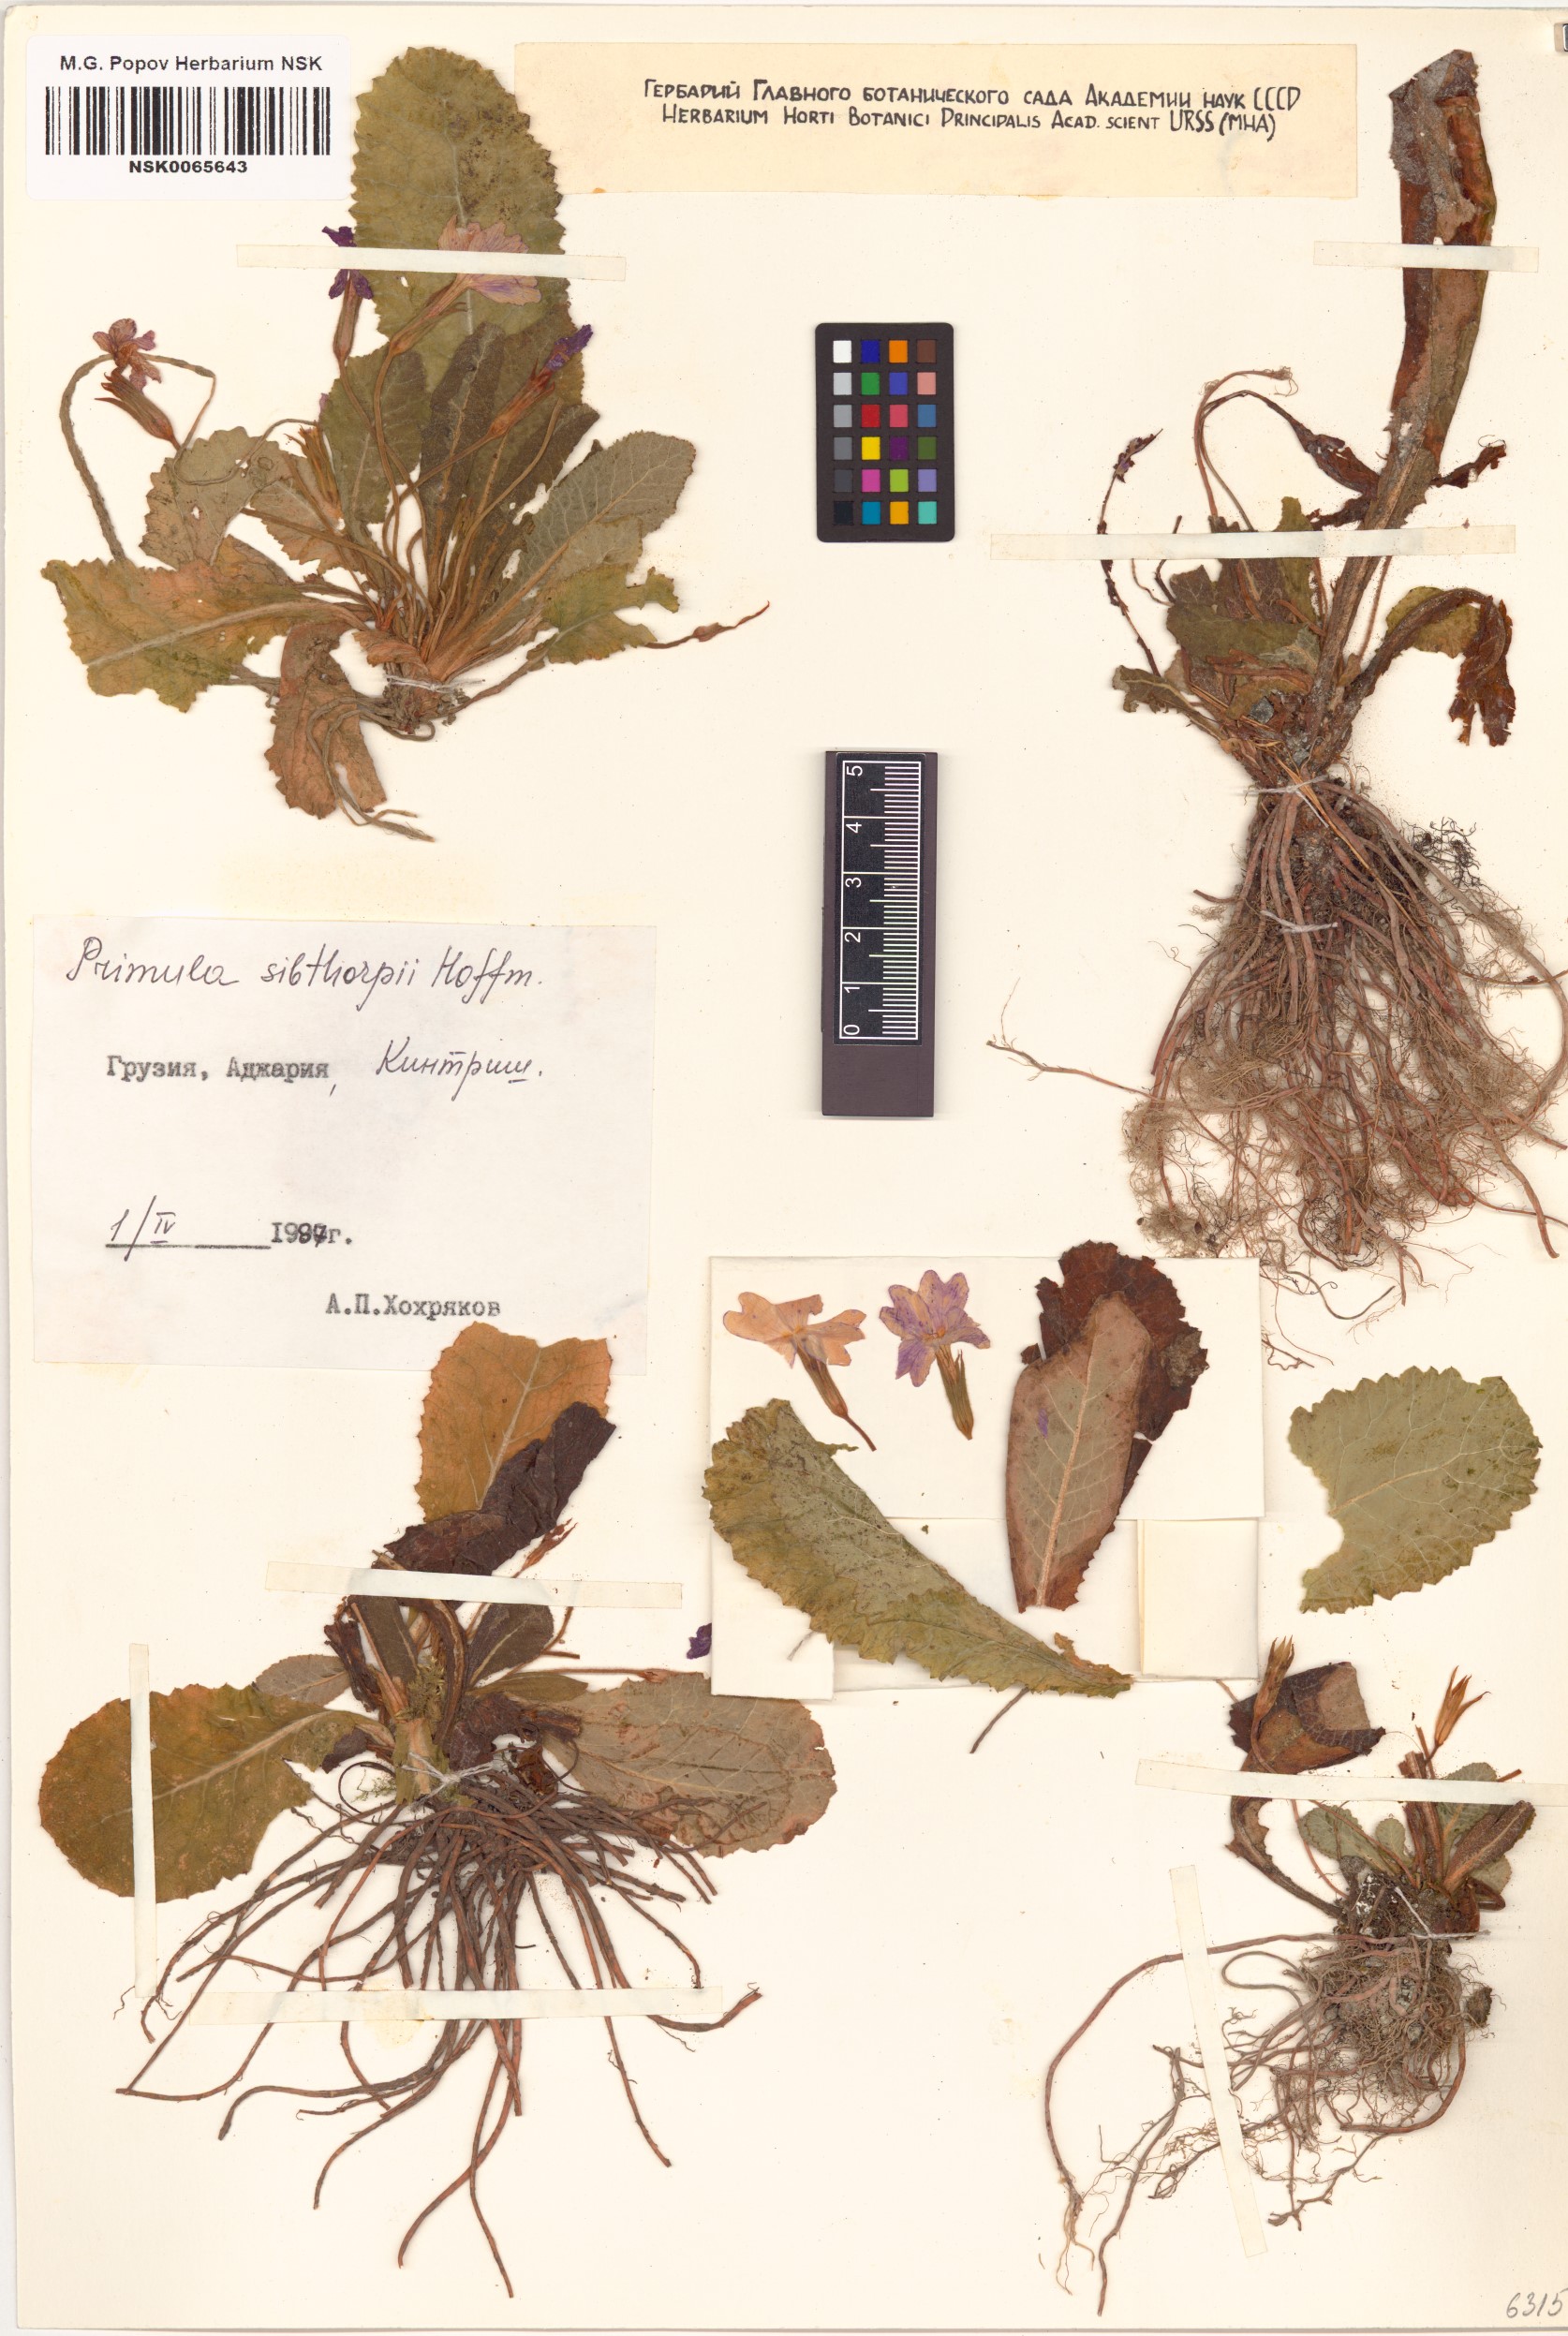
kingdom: Plantae
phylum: Tracheophyta
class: Magnoliopsida
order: Ericales
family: Primulaceae
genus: Primula
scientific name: Primula vulgaris
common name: Primrose
